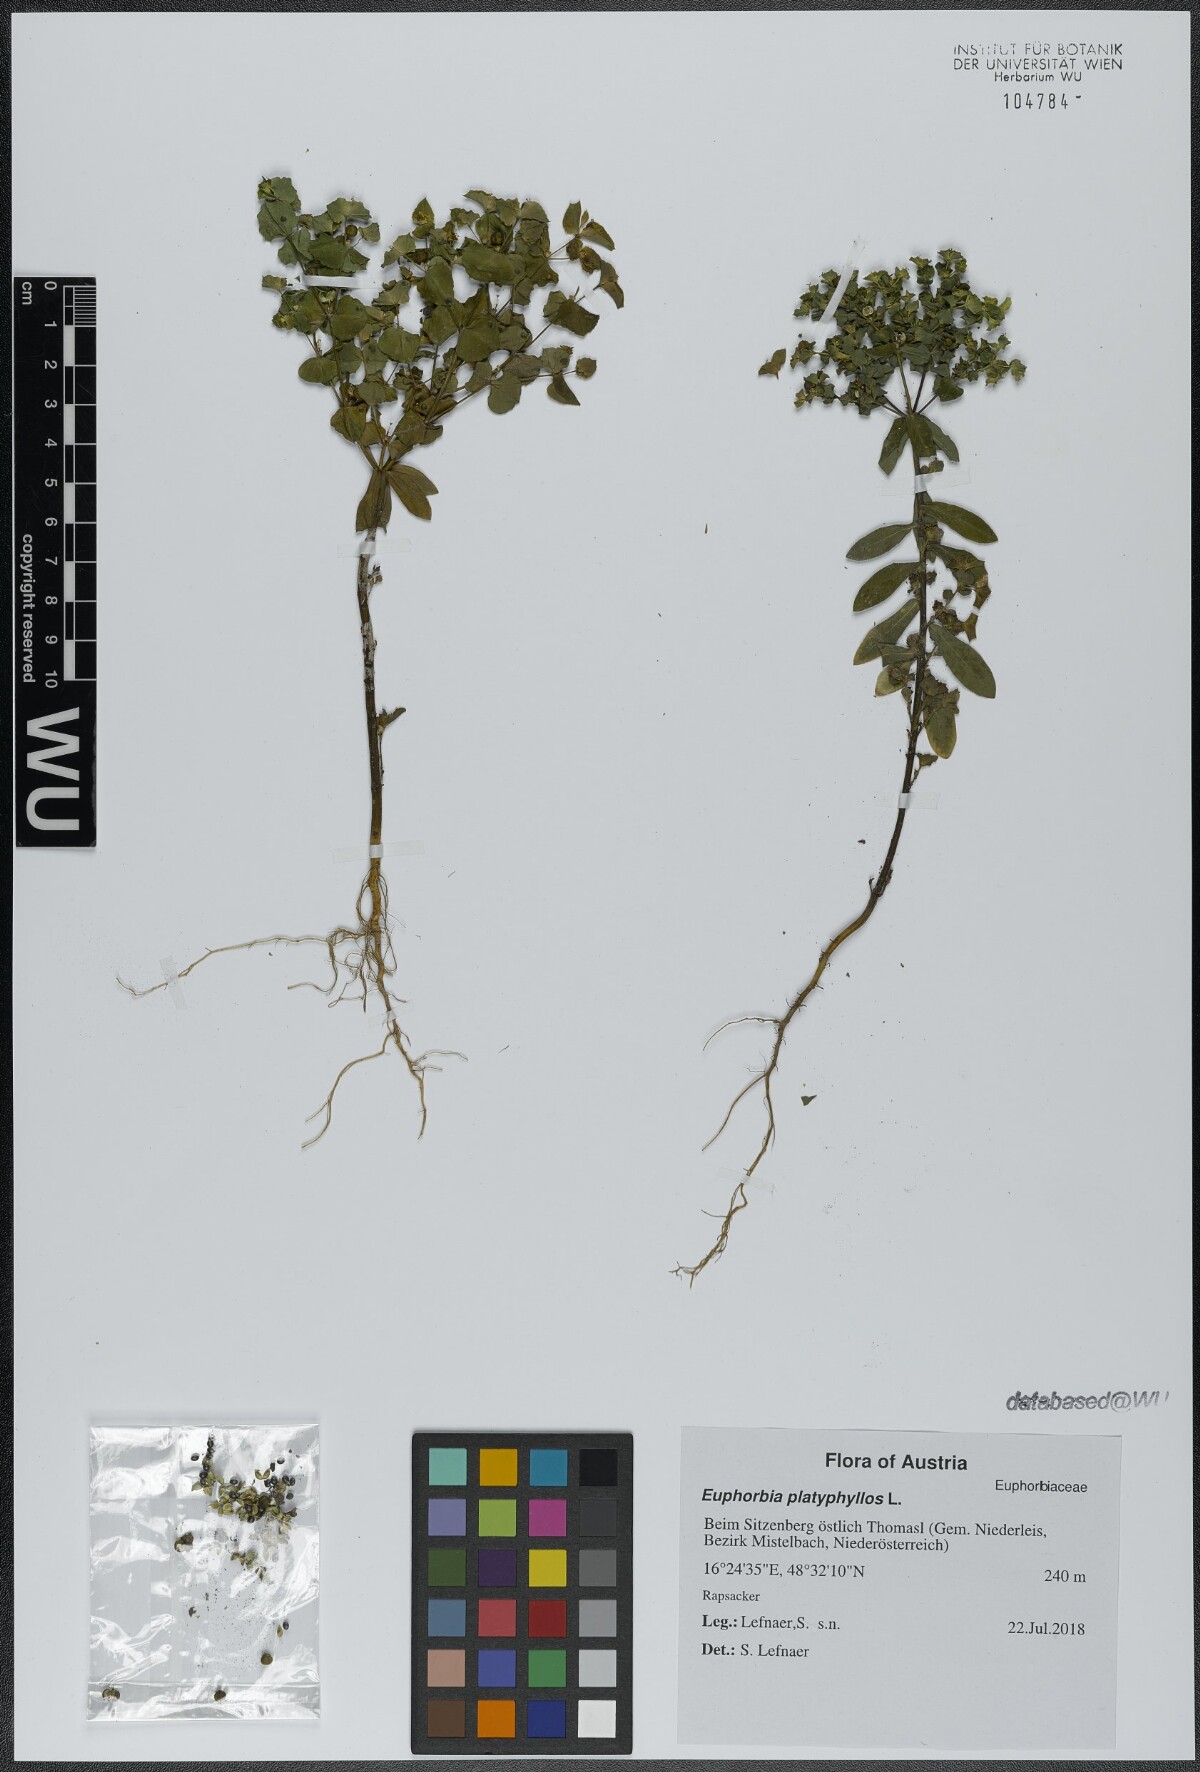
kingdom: Plantae
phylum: Tracheophyta
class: Magnoliopsida
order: Malpighiales
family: Euphorbiaceae
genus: Euphorbia
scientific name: Euphorbia platyphyllos
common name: Broad-leaved spurge
